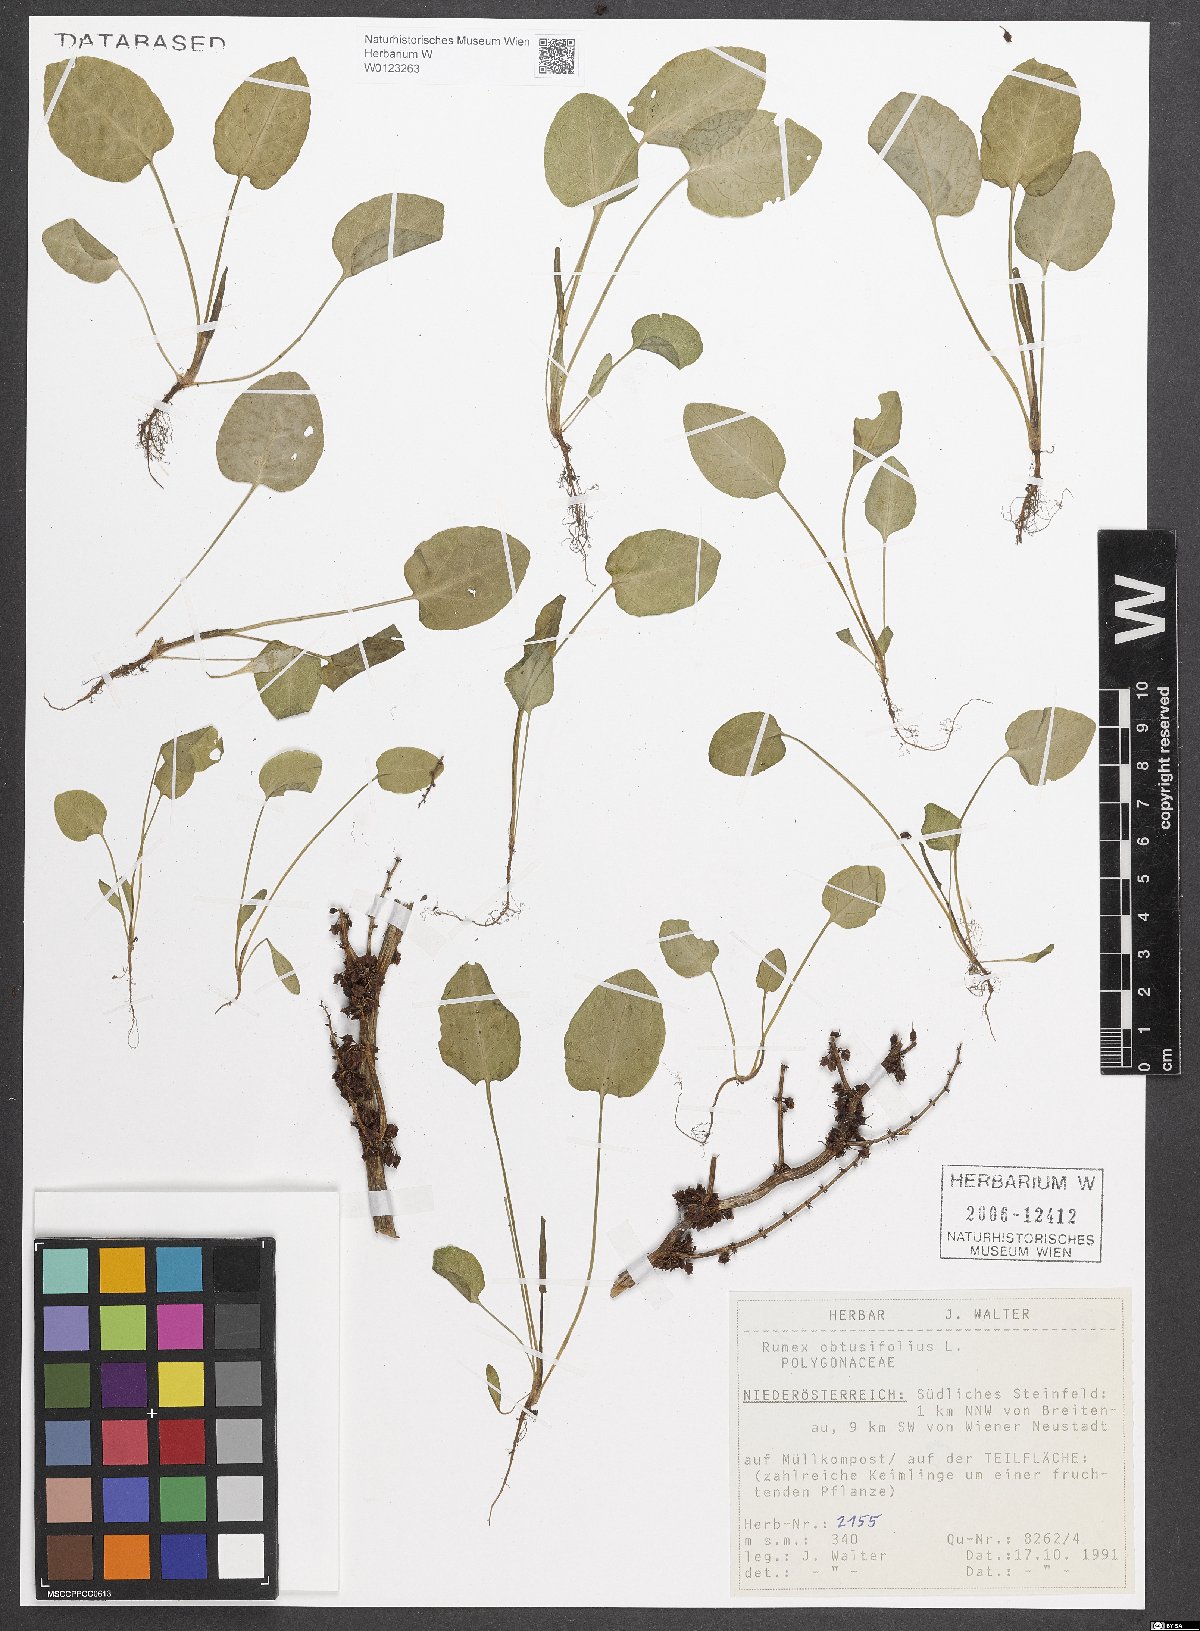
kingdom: Plantae
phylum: Tracheophyta
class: Magnoliopsida
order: Caryophyllales
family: Polygonaceae
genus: Rumex
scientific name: Rumex obtusifolius
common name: Bitter dock
